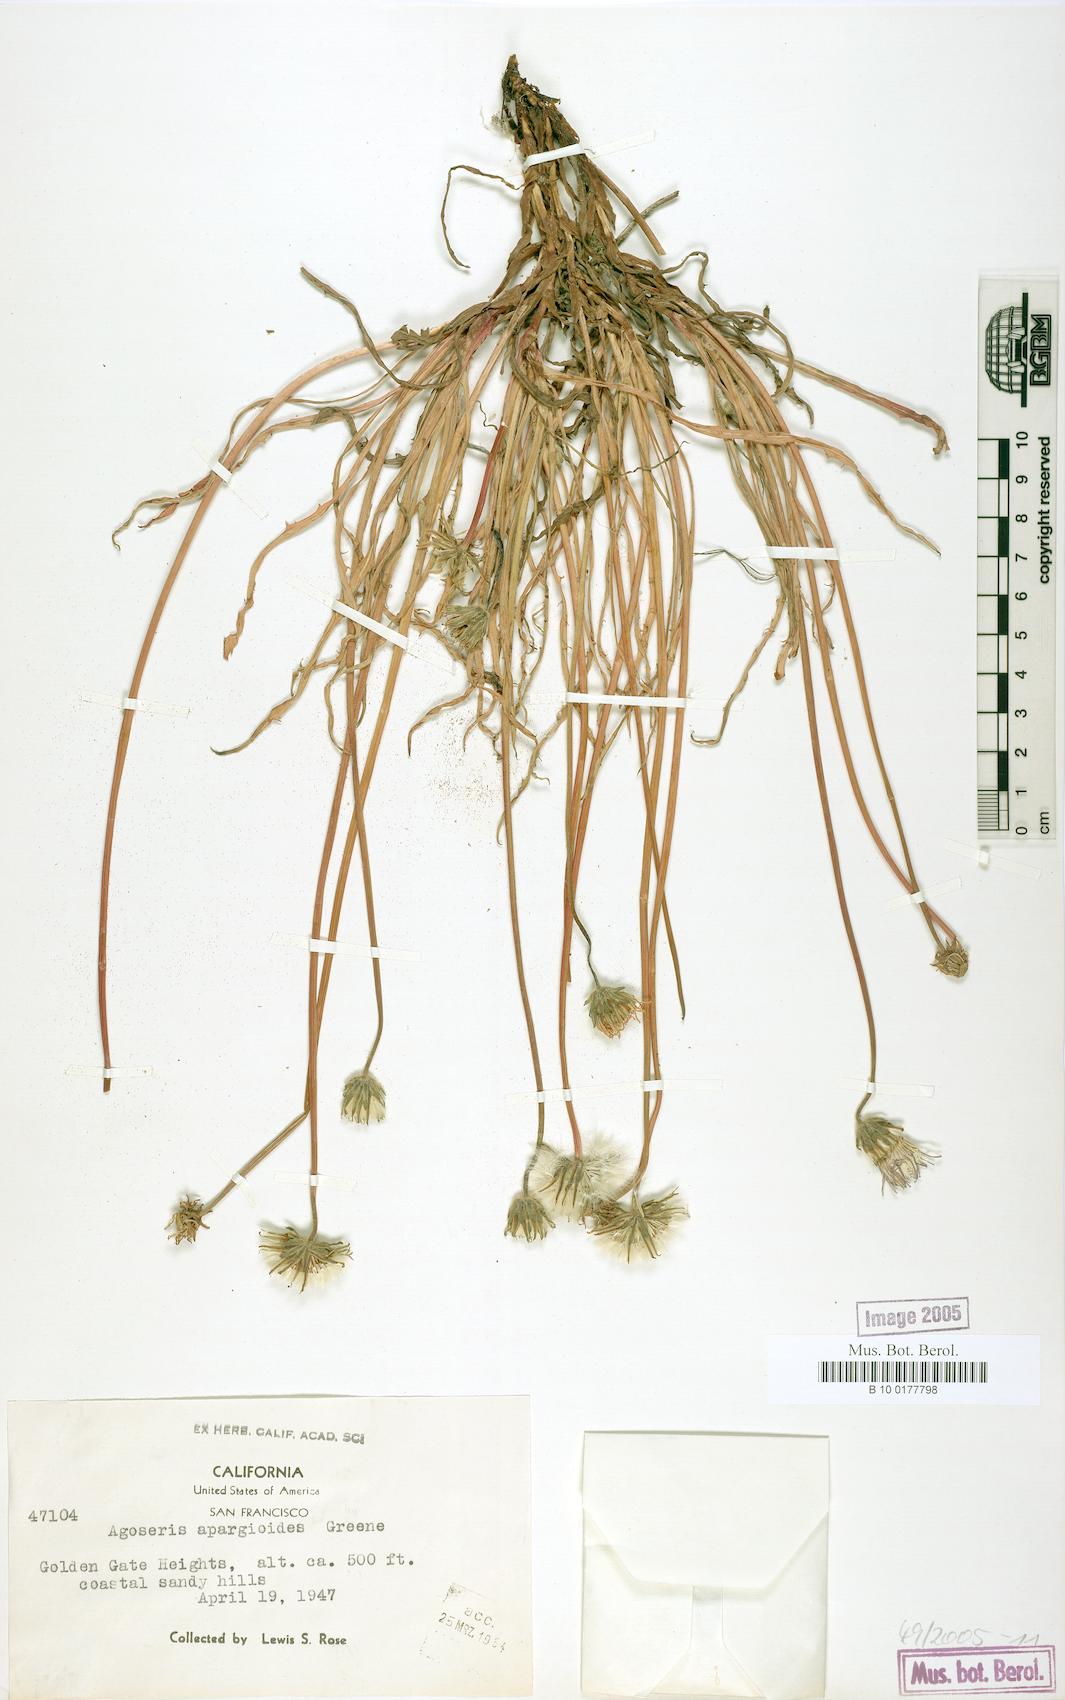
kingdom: Plantae
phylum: Tracheophyta
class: Magnoliopsida
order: Asterales
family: Asteraceae
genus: Agoseris
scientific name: Agoseris apargioides
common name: Point reyes agoseris
